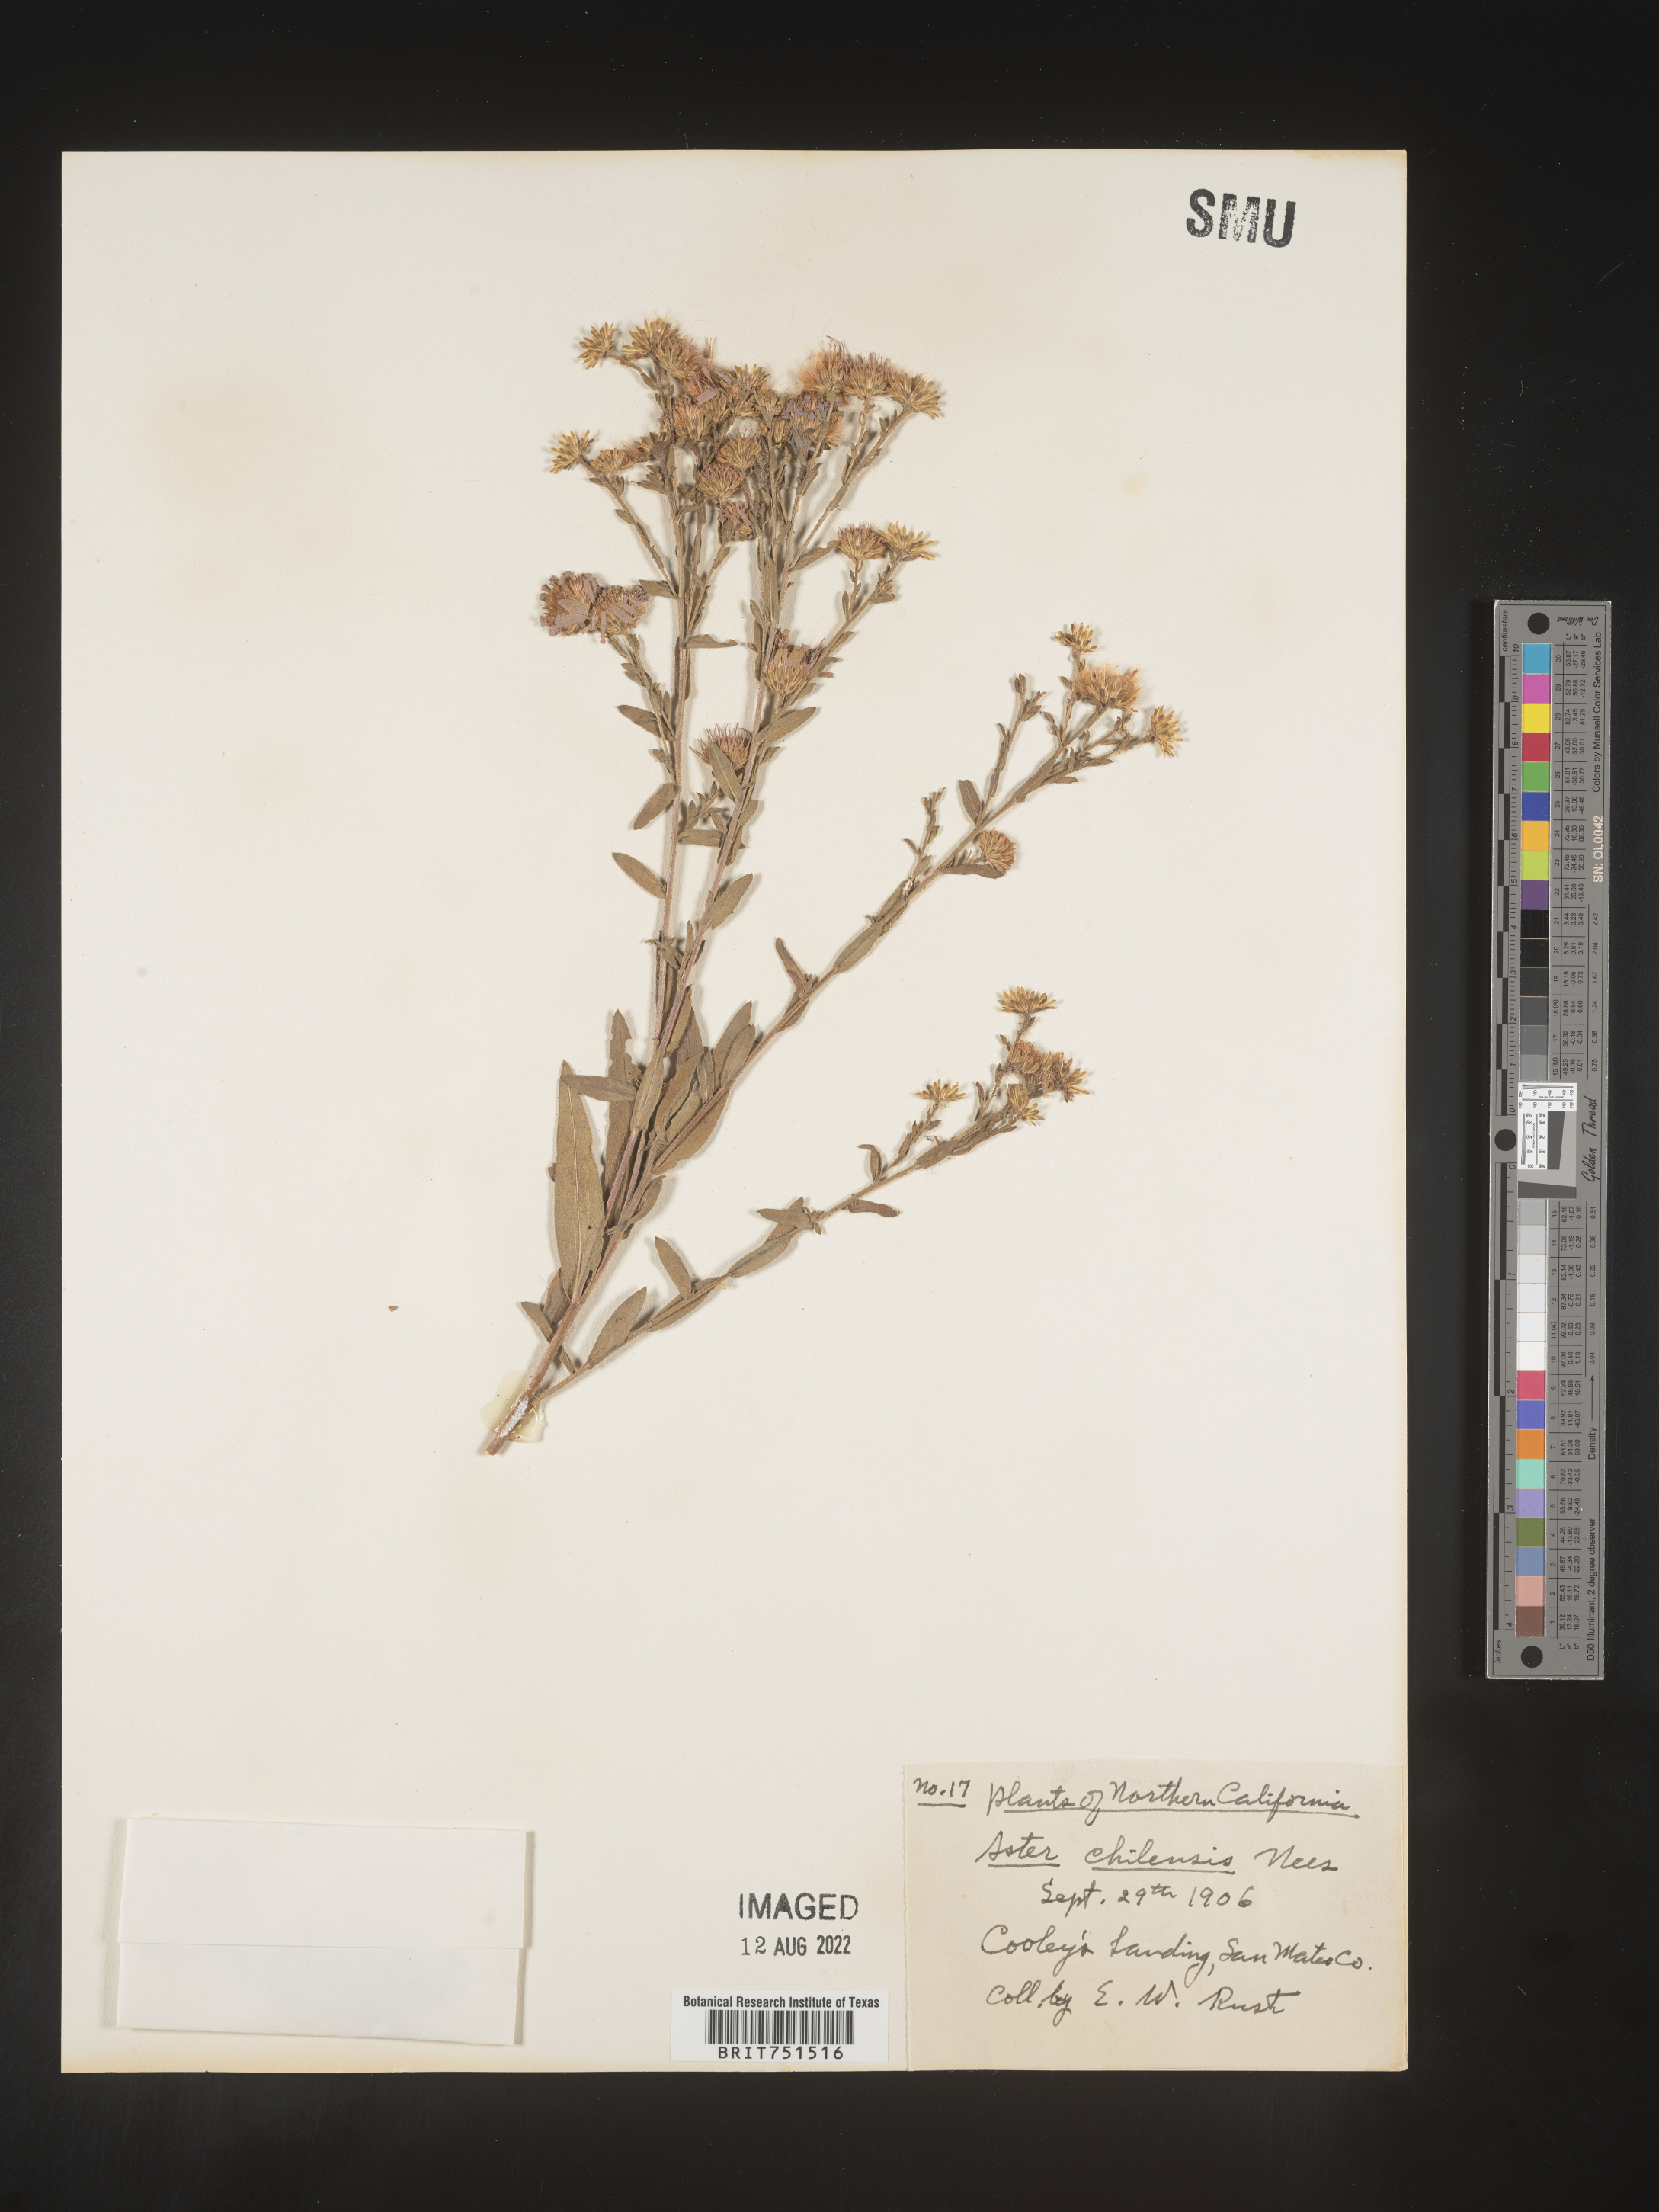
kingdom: Plantae
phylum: Tracheophyta
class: Magnoliopsida
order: Asterales
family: Asteraceae
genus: Symphyotrichum
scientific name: Symphyotrichum chilense
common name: Pacific aster
